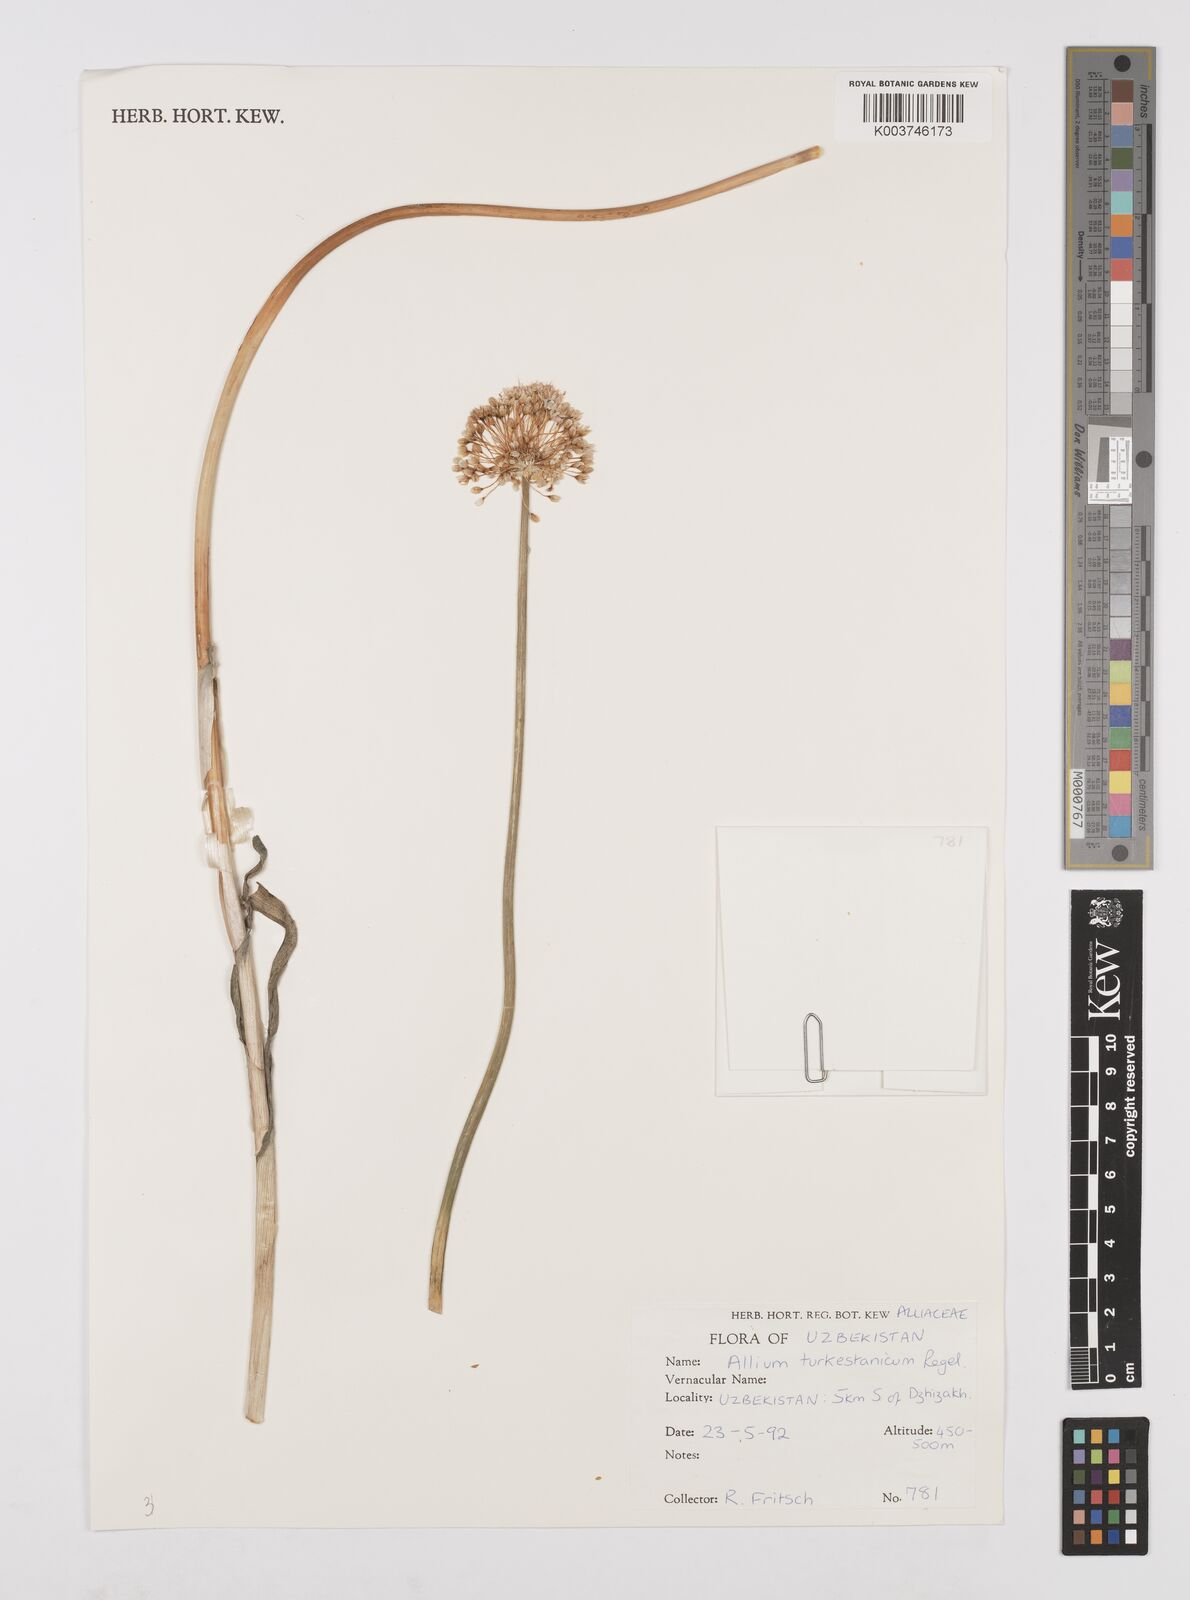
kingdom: Plantae
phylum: Tracheophyta
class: Liliopsida
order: Asparagales
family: Amaryllidaceae
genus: Allium
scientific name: Allium lehmannianum
